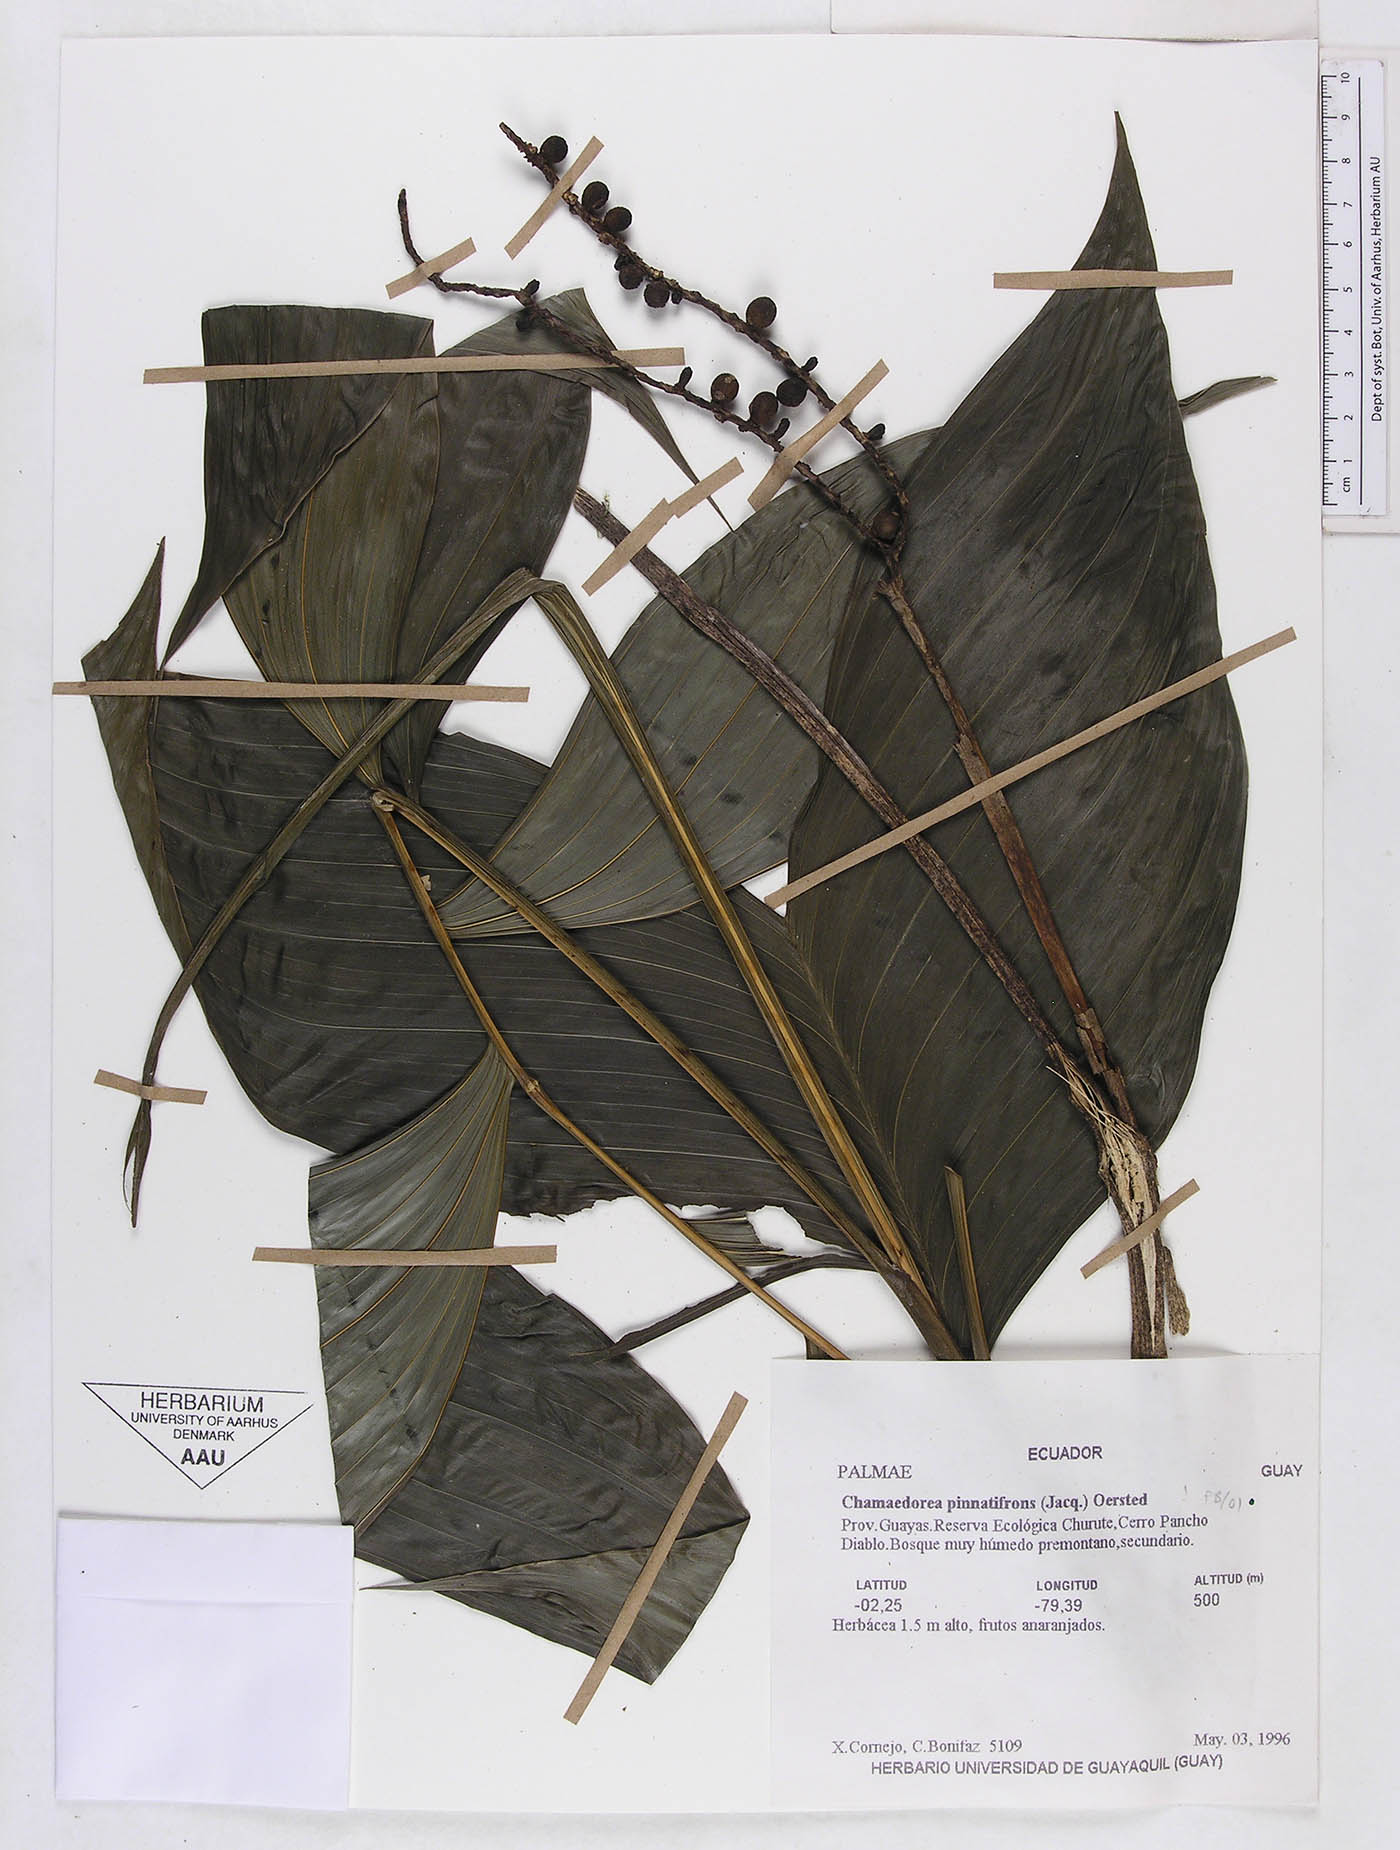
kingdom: Plantae
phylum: Tracheophyta
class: Liliopsida
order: Arecales
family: Arecaceae
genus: Chamaedorea
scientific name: Chamaedorea pinnatifrons
